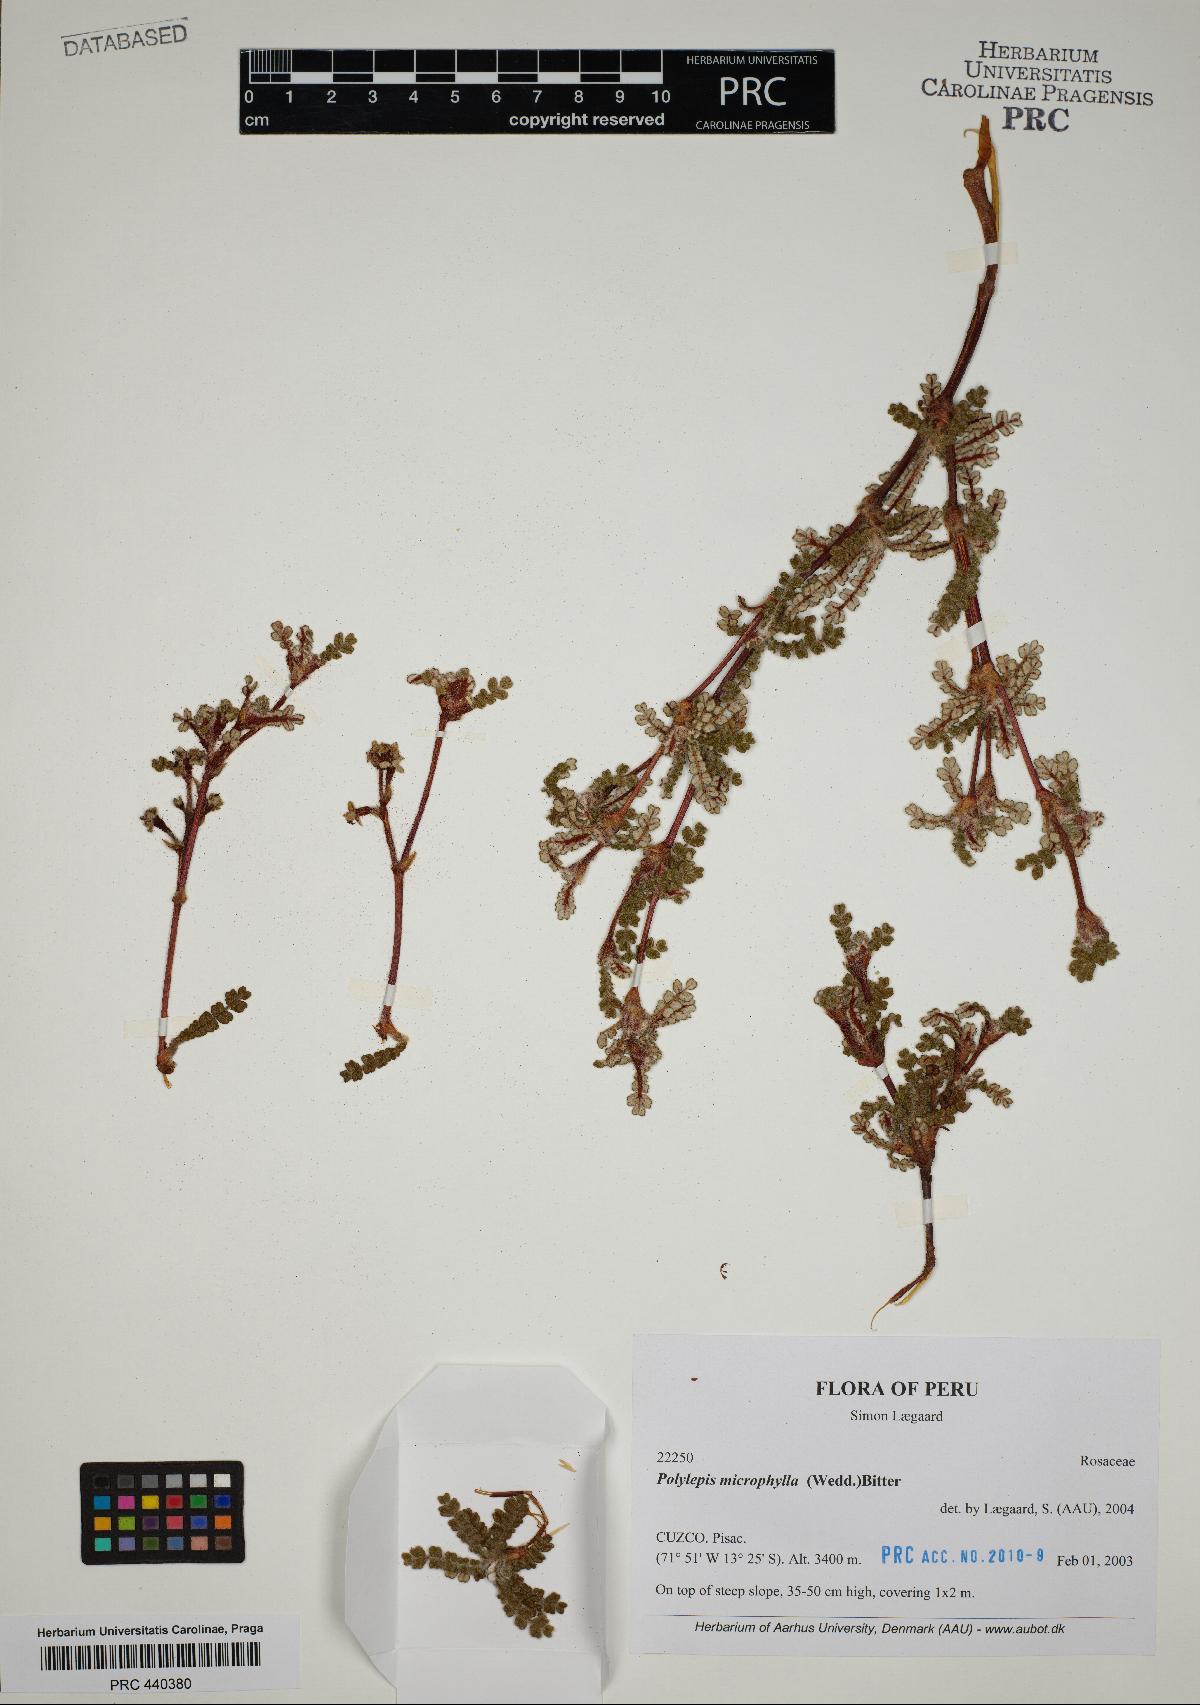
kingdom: Plantae
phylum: Tracheophyta
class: Magnoliopsida
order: Rosales
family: Rosaceae
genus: Polylepis
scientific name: Polylepis microphylla
